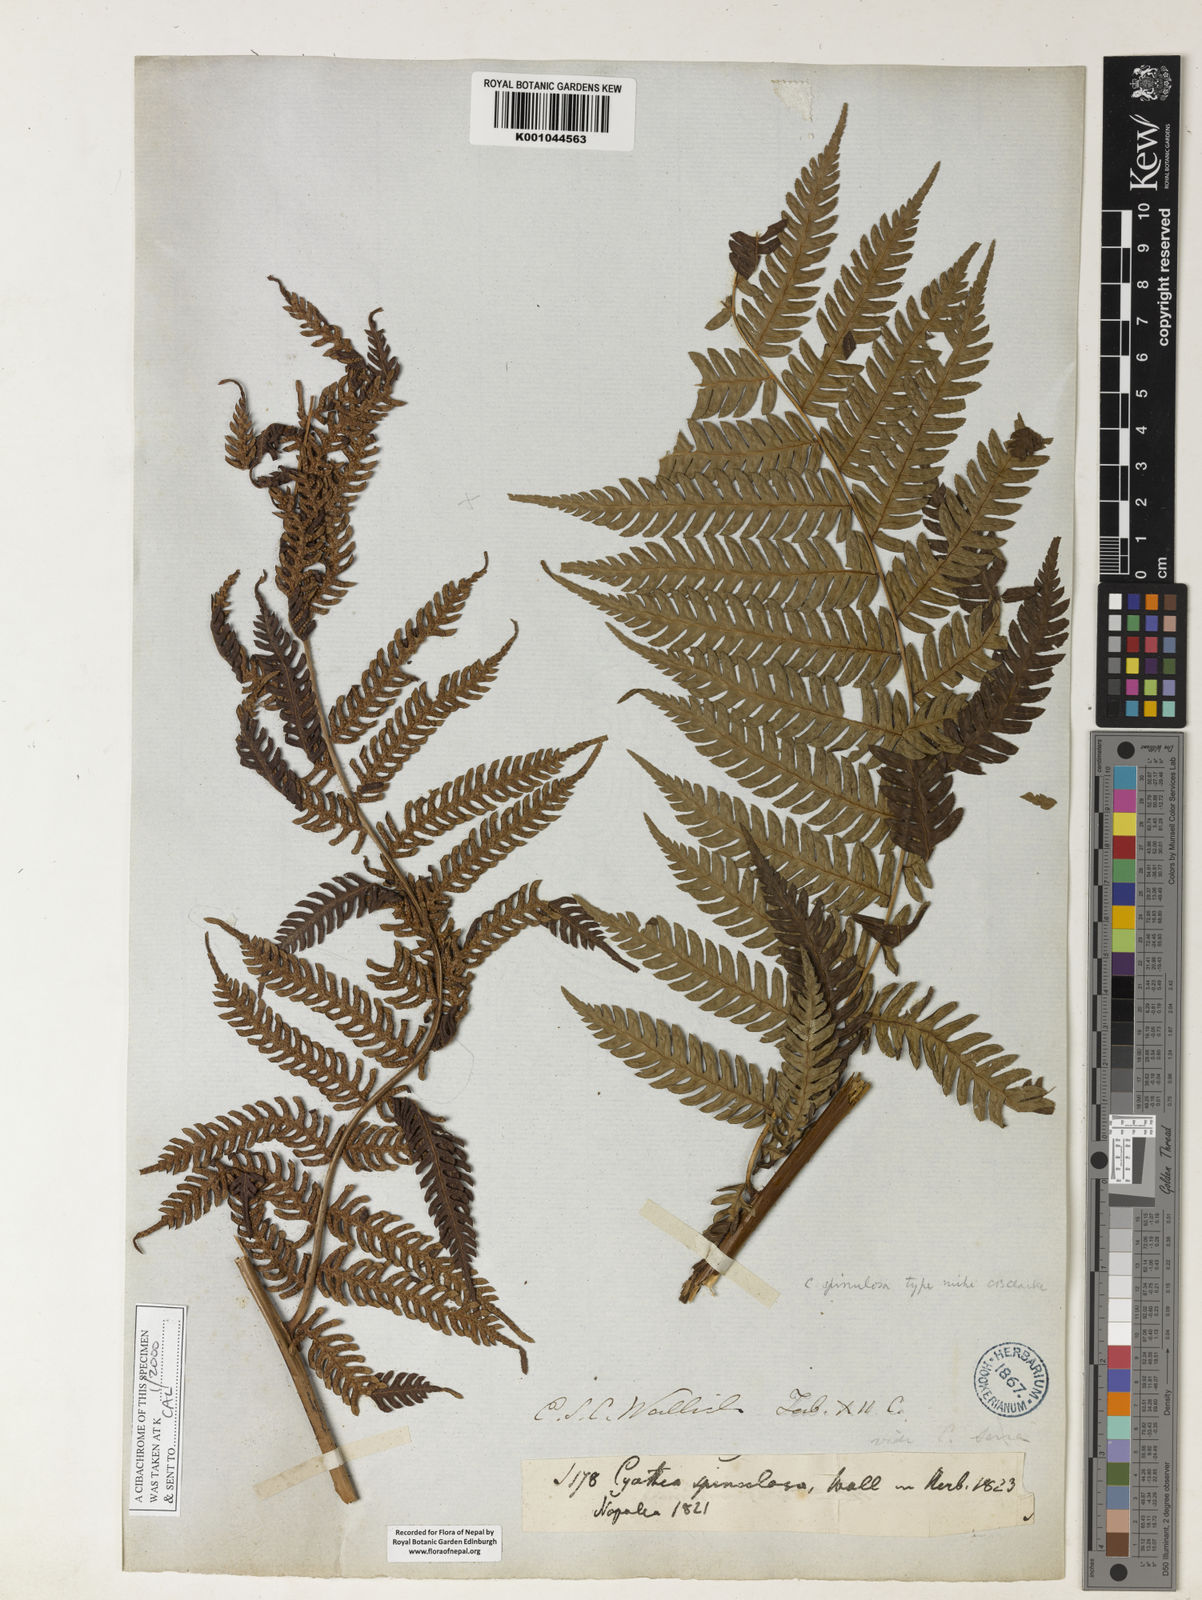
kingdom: Plantae
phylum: Tracheophyta
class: Polypodiopsida
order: Cyatheales
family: Cyatheaceae
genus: Cyathea
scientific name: Cyathea
